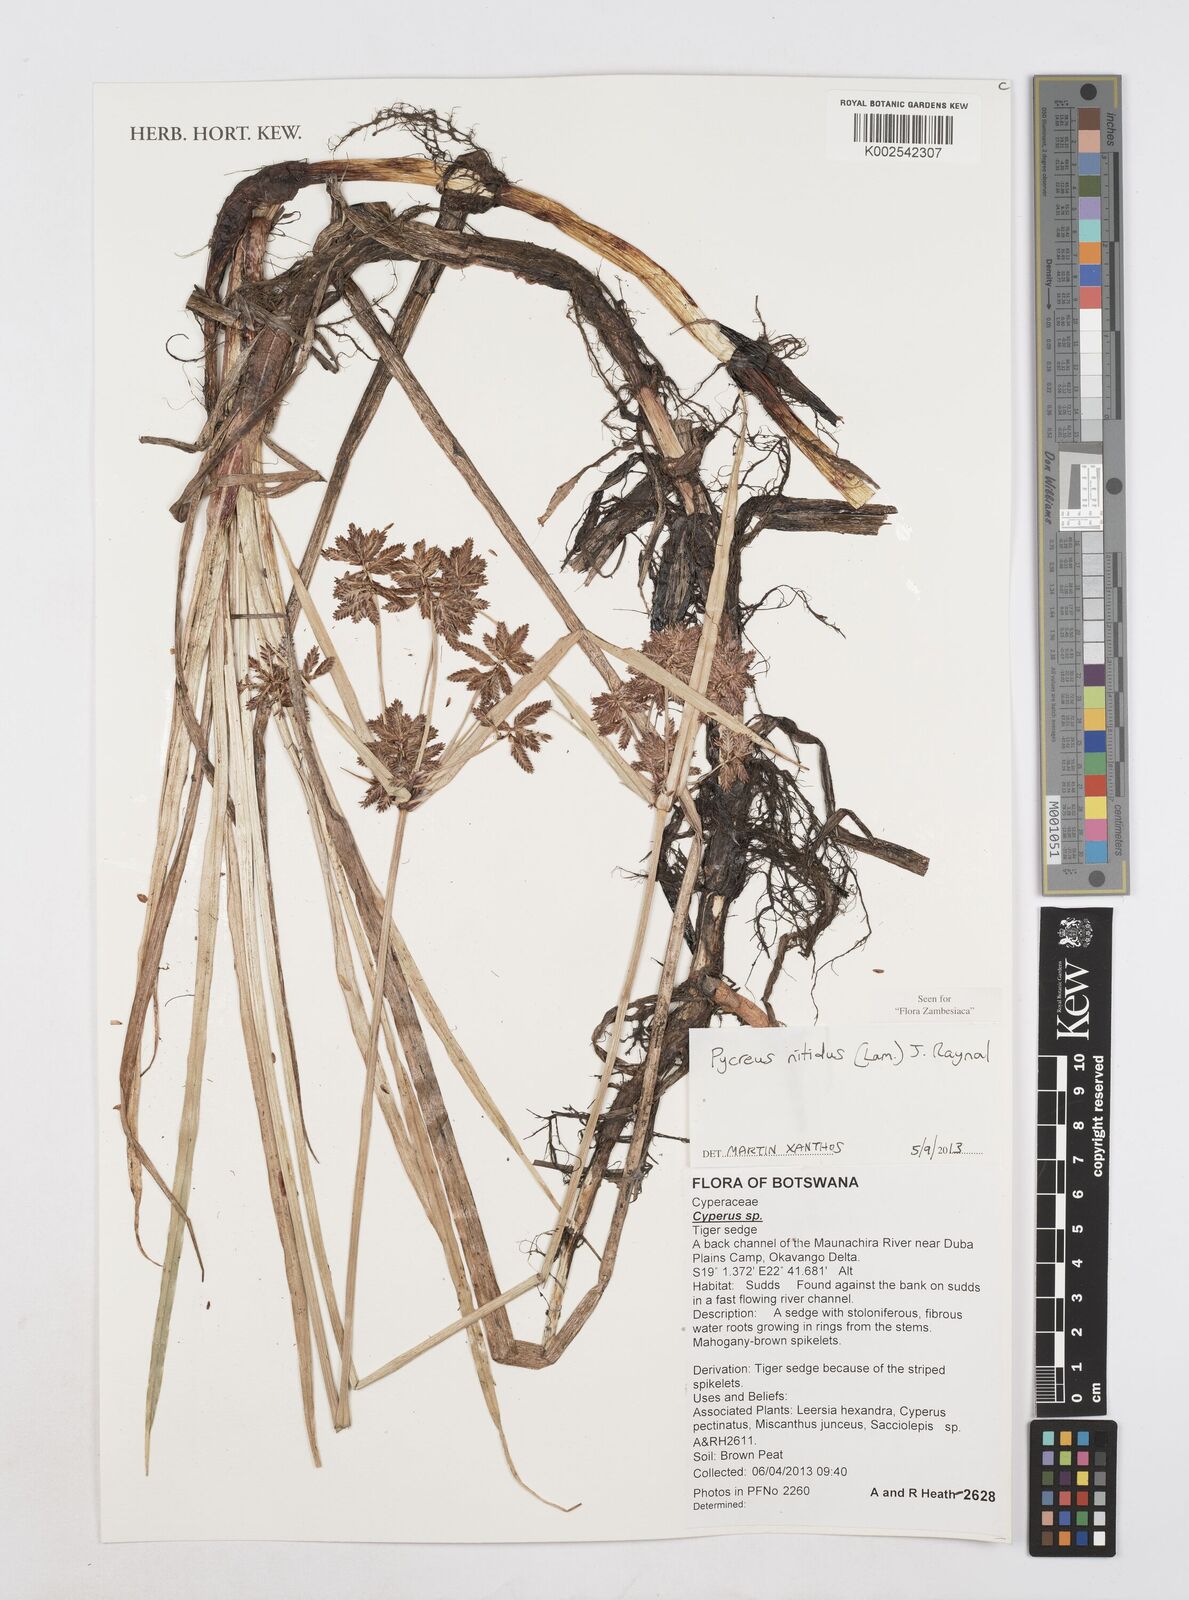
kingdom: Plantae
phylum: Tracheophyta
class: Liliopsida
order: Poales
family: Cyperaceae
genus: Cyperus
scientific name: Cyperus nitidus
